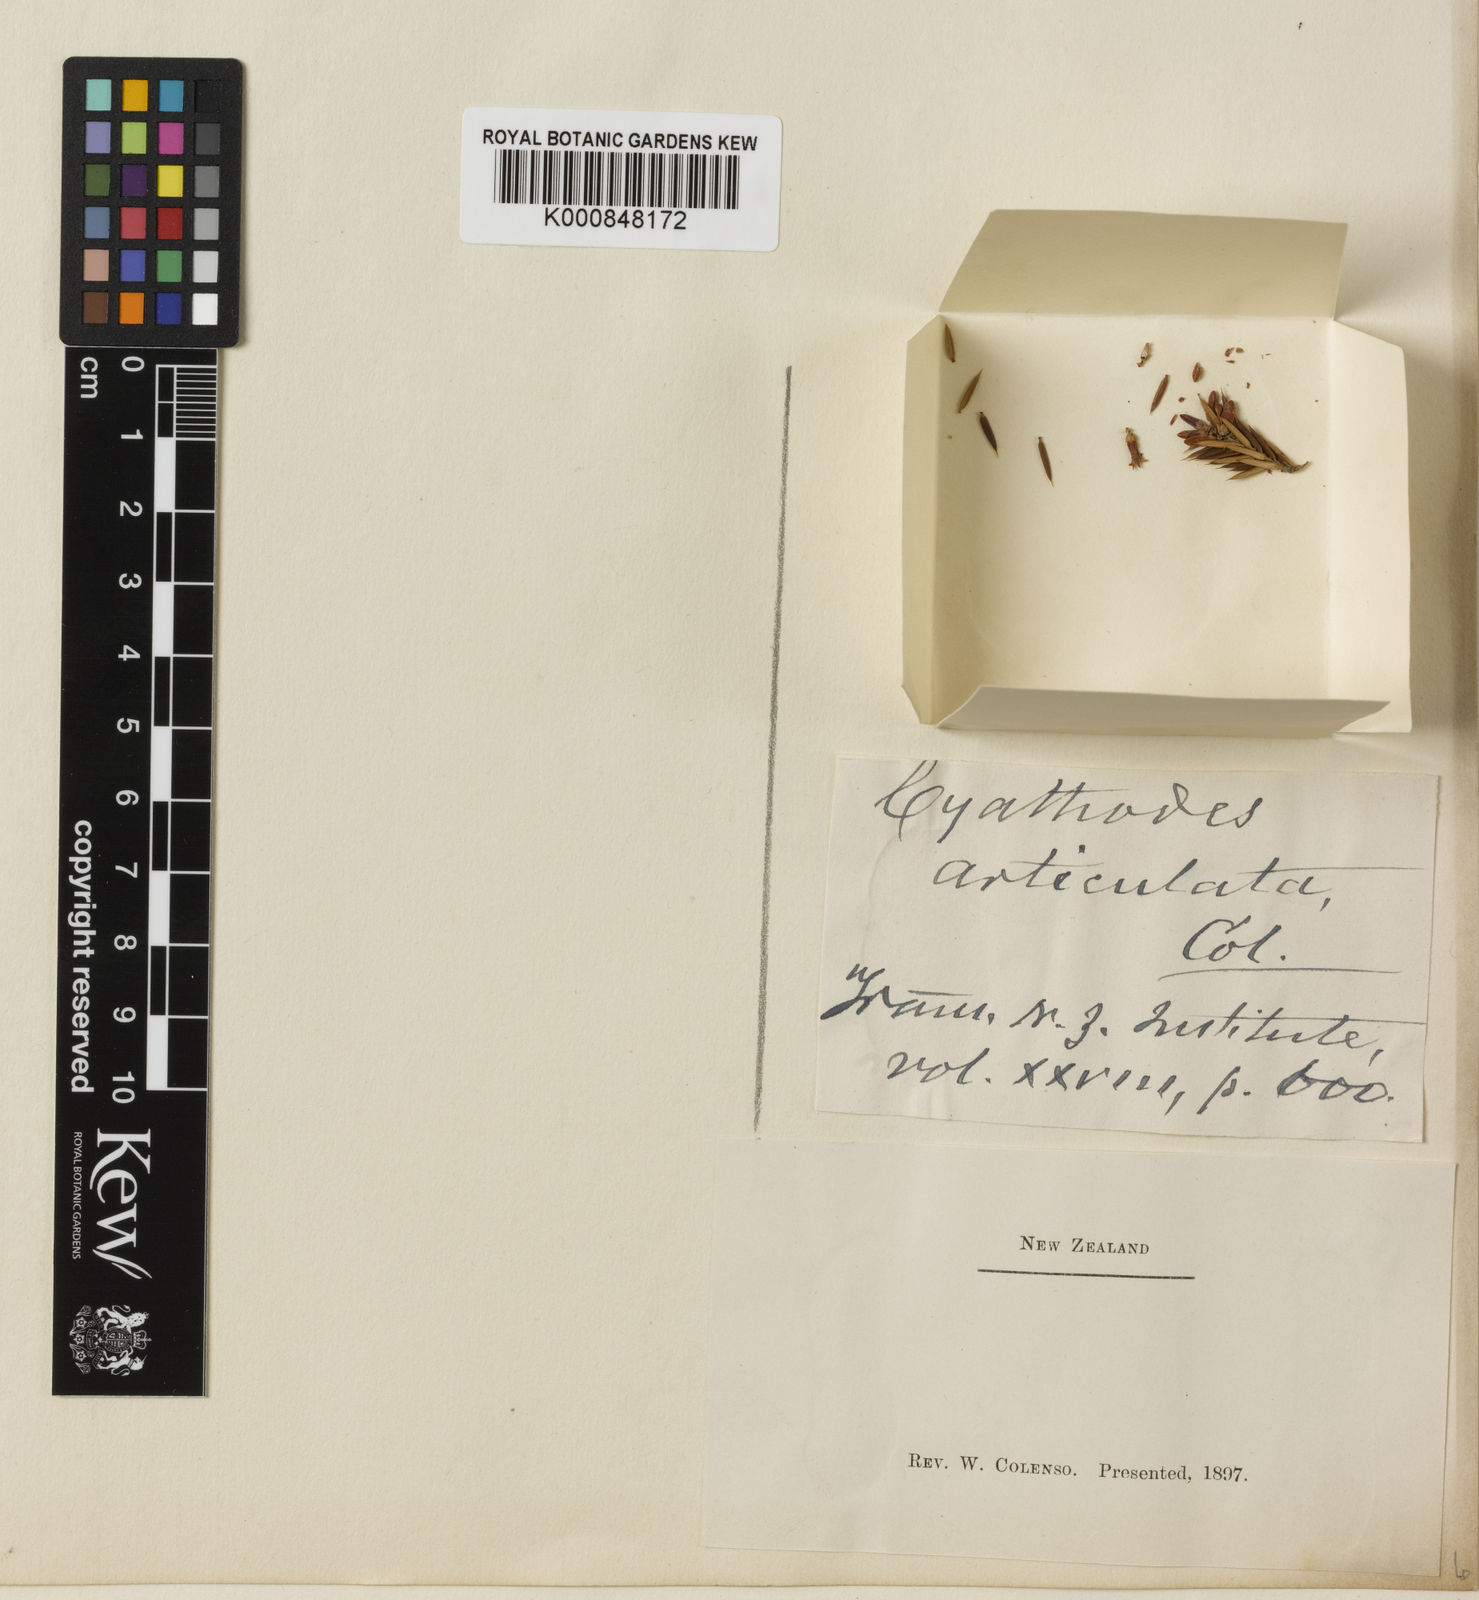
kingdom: Plantae
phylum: Tracheophyta
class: Magnoliopsida
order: Ericales
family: Ericaceae
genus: Cyathodes
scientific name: Cyathodes
